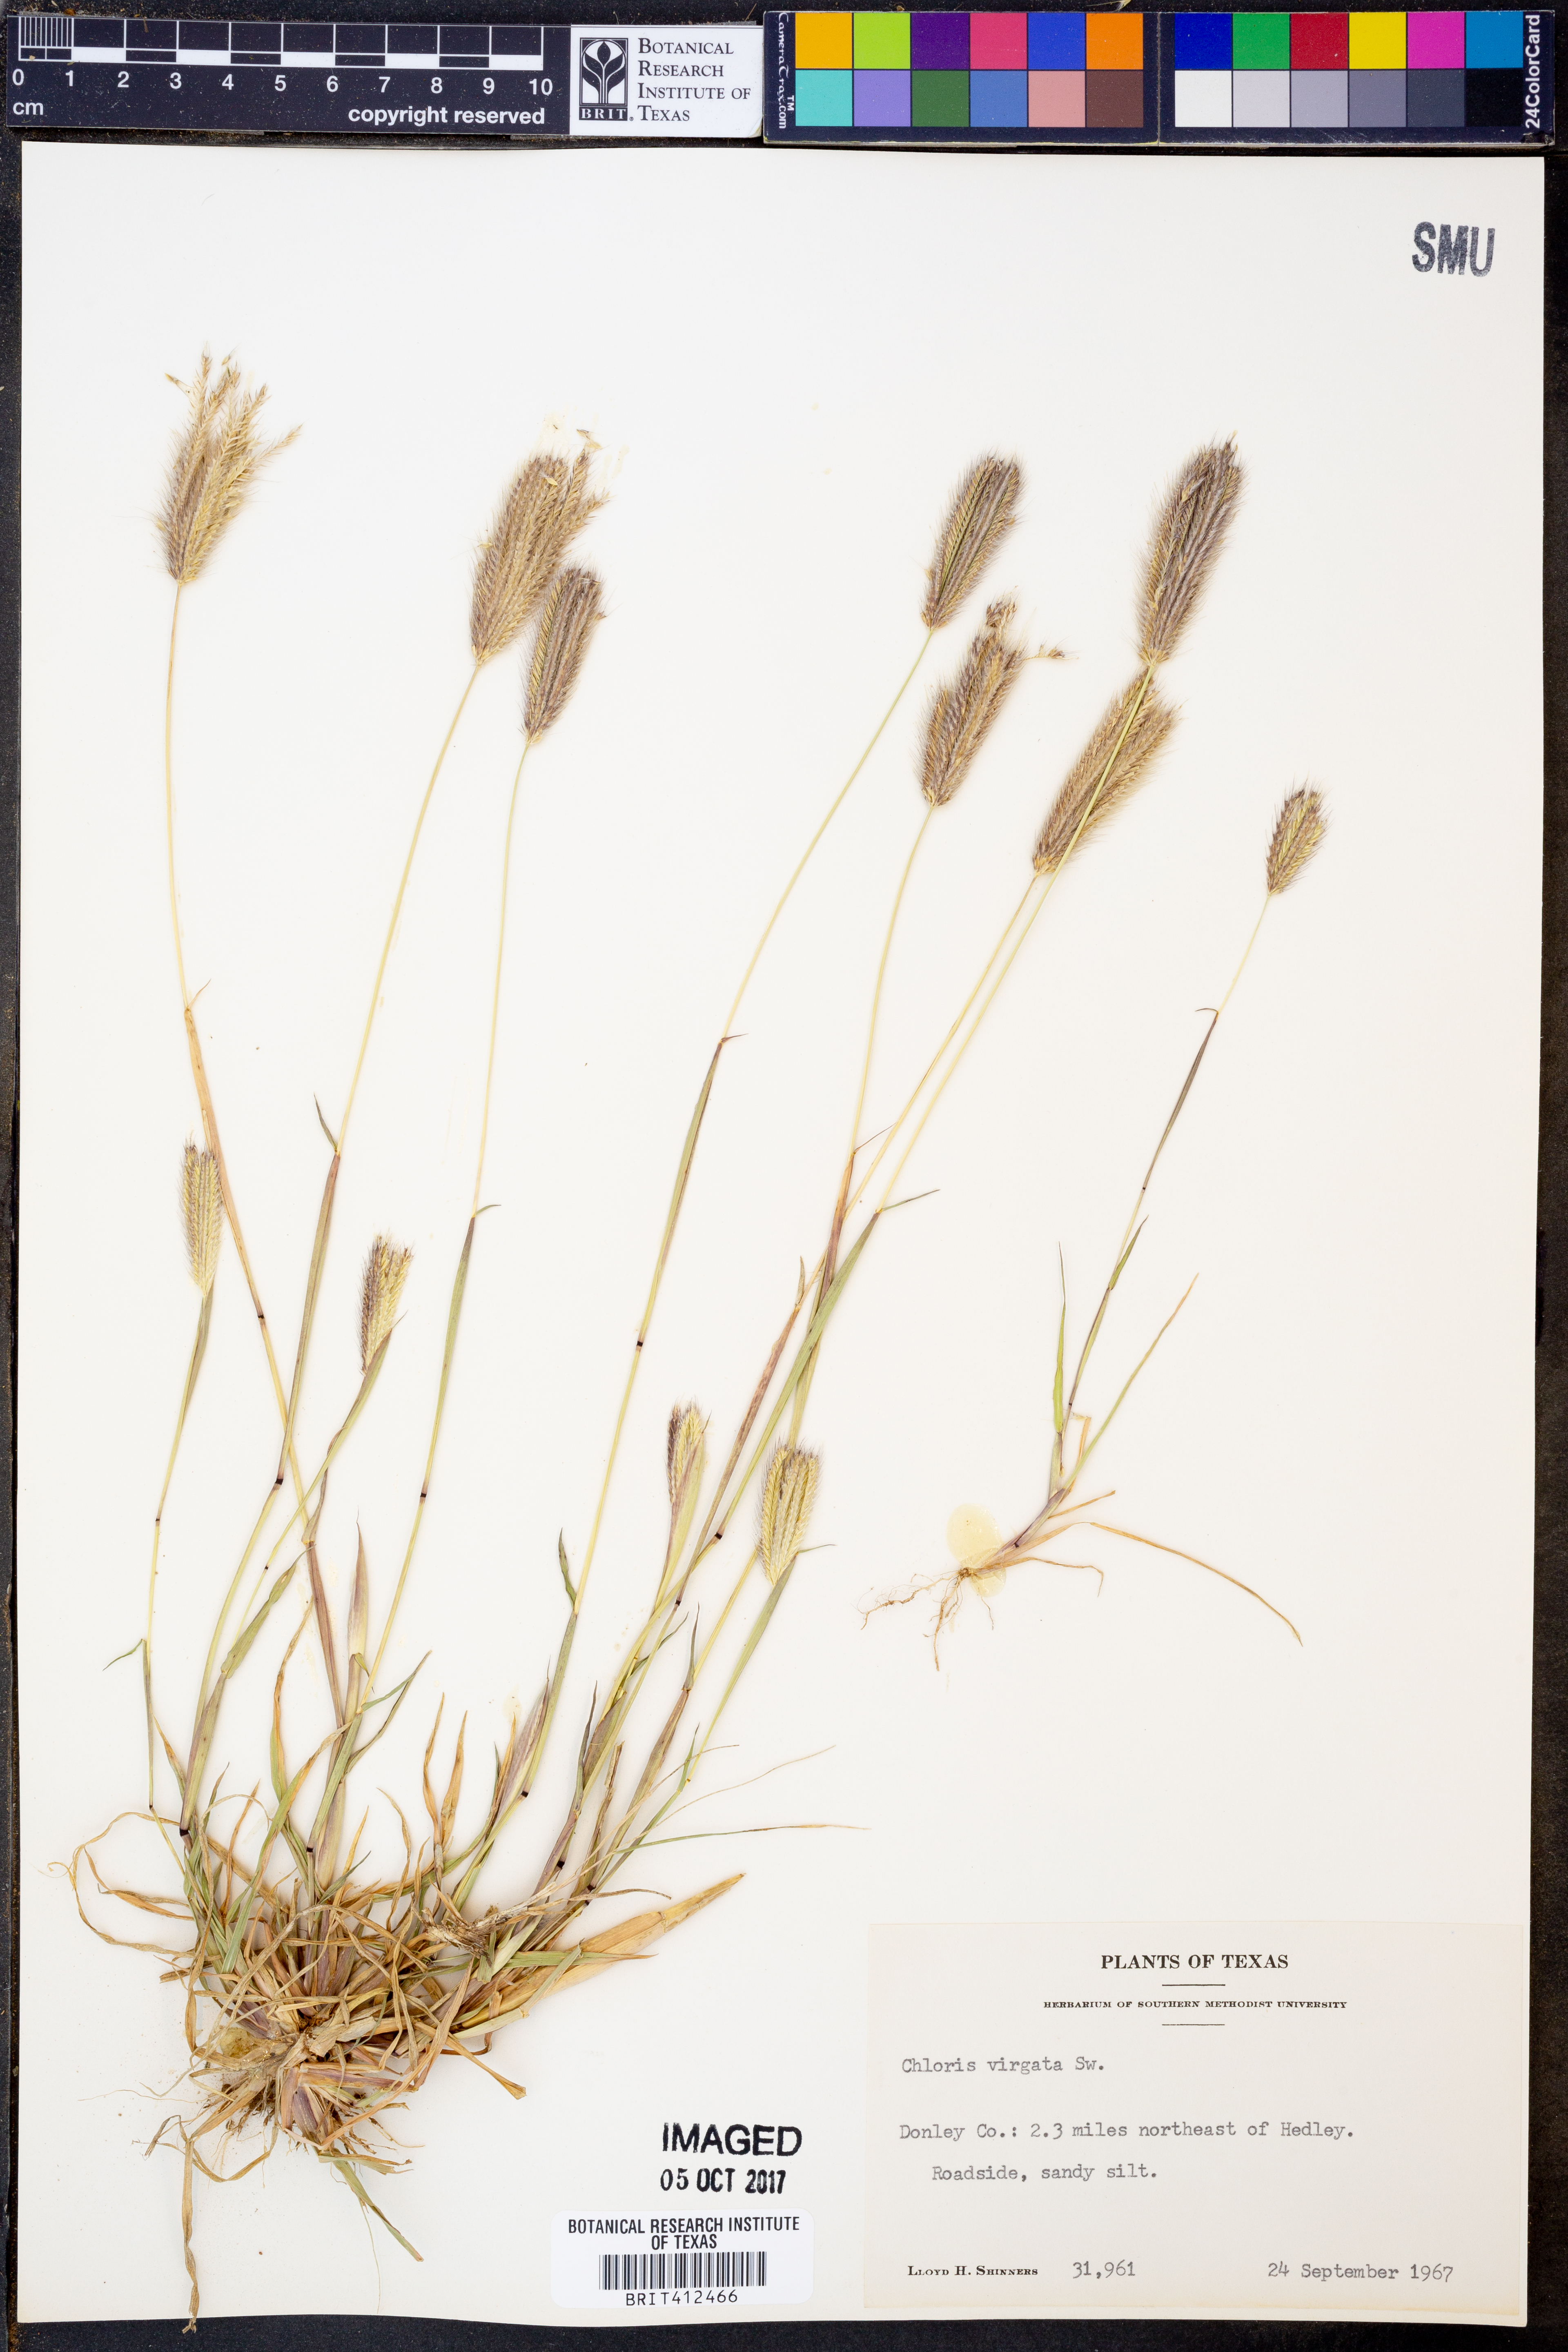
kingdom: Plantae
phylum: Tracheophyta
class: Liliopsida
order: Poales
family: Poaceae
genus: Chloris
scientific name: Chloris virgata
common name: Feathery rhodes-grass
